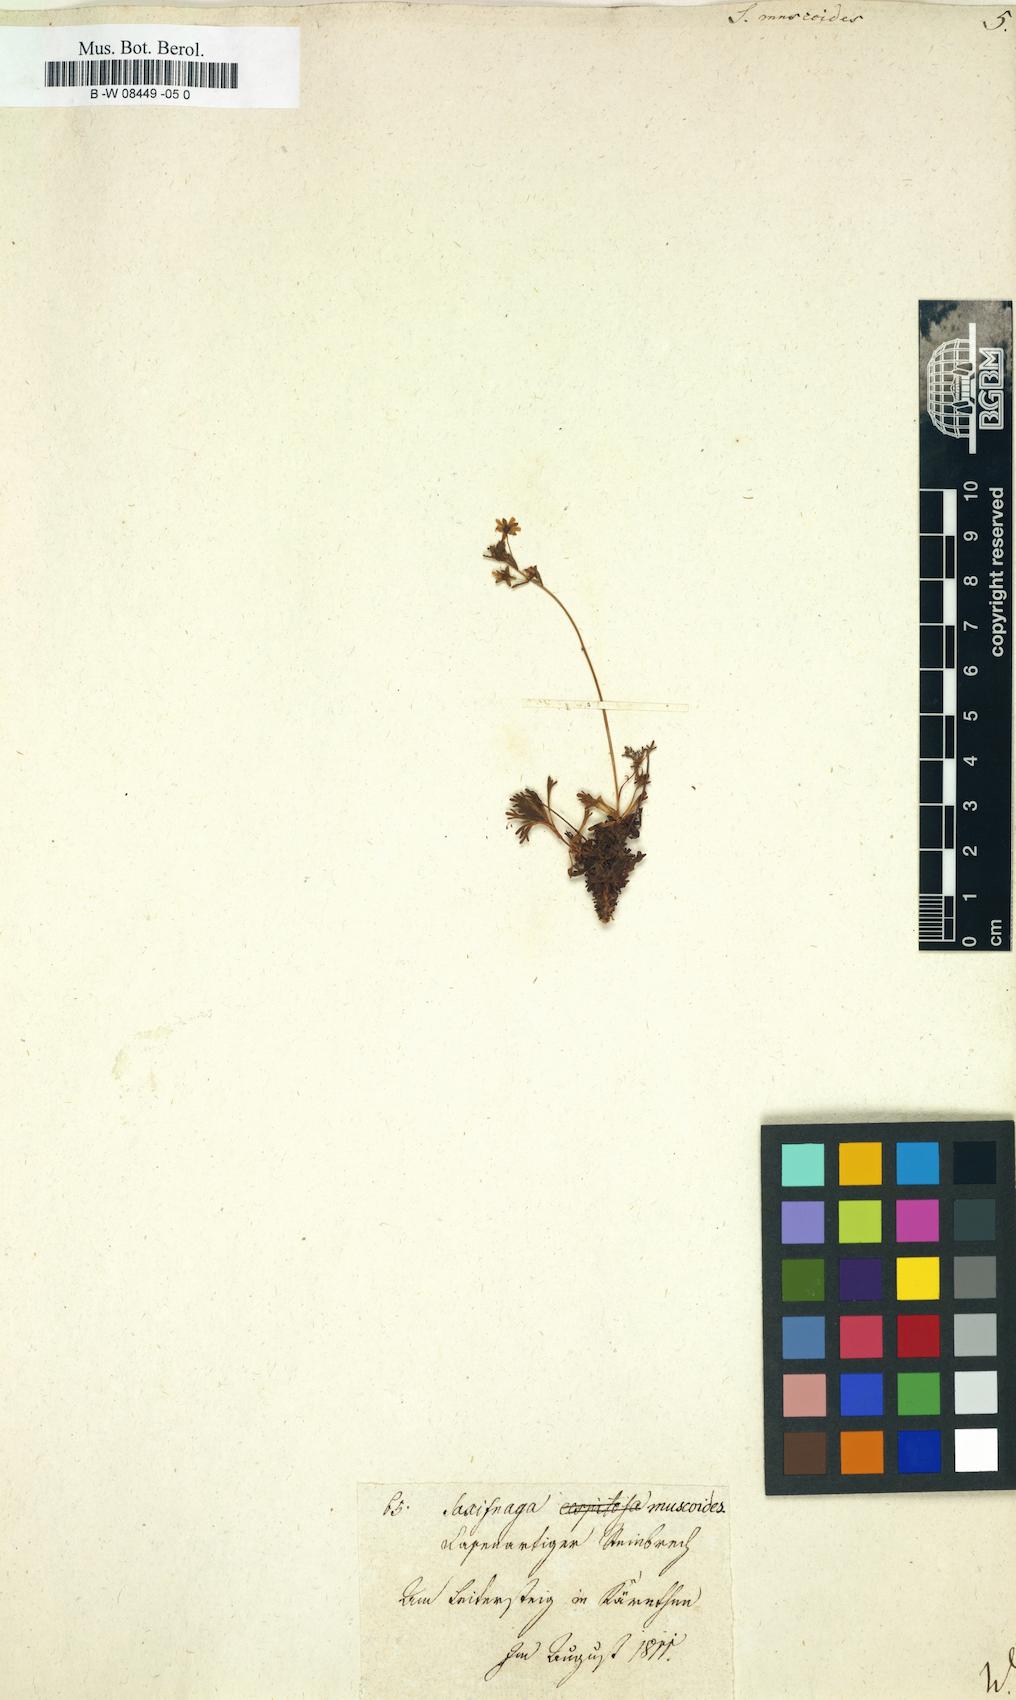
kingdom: Plantae
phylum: Tracheophyta
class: Magnoliopsida
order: Saxifragales
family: Saxifragaceae
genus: Saxifraga
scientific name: Saxifraga muscoides
